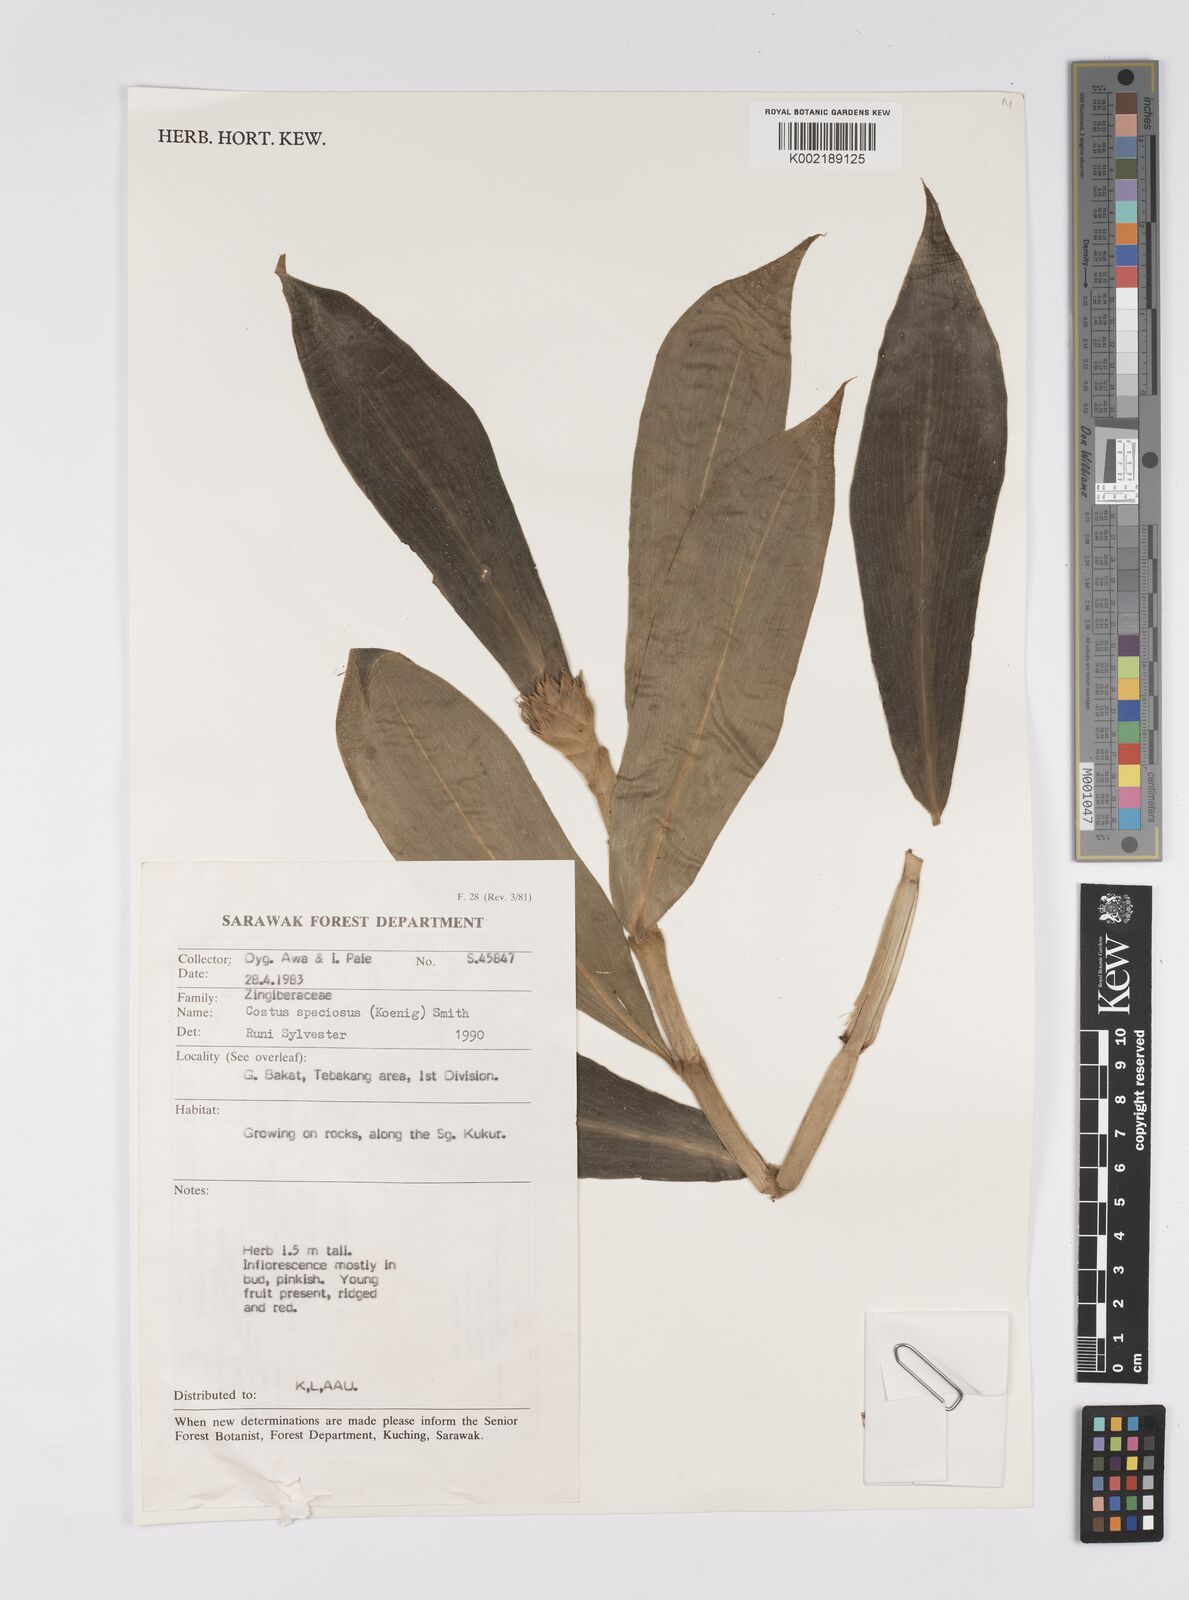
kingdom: Plantae
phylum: Tracheophyta
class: Liliopsida
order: Zingiberales
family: Costaceae
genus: Hellenia
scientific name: Hellenia speciosa
